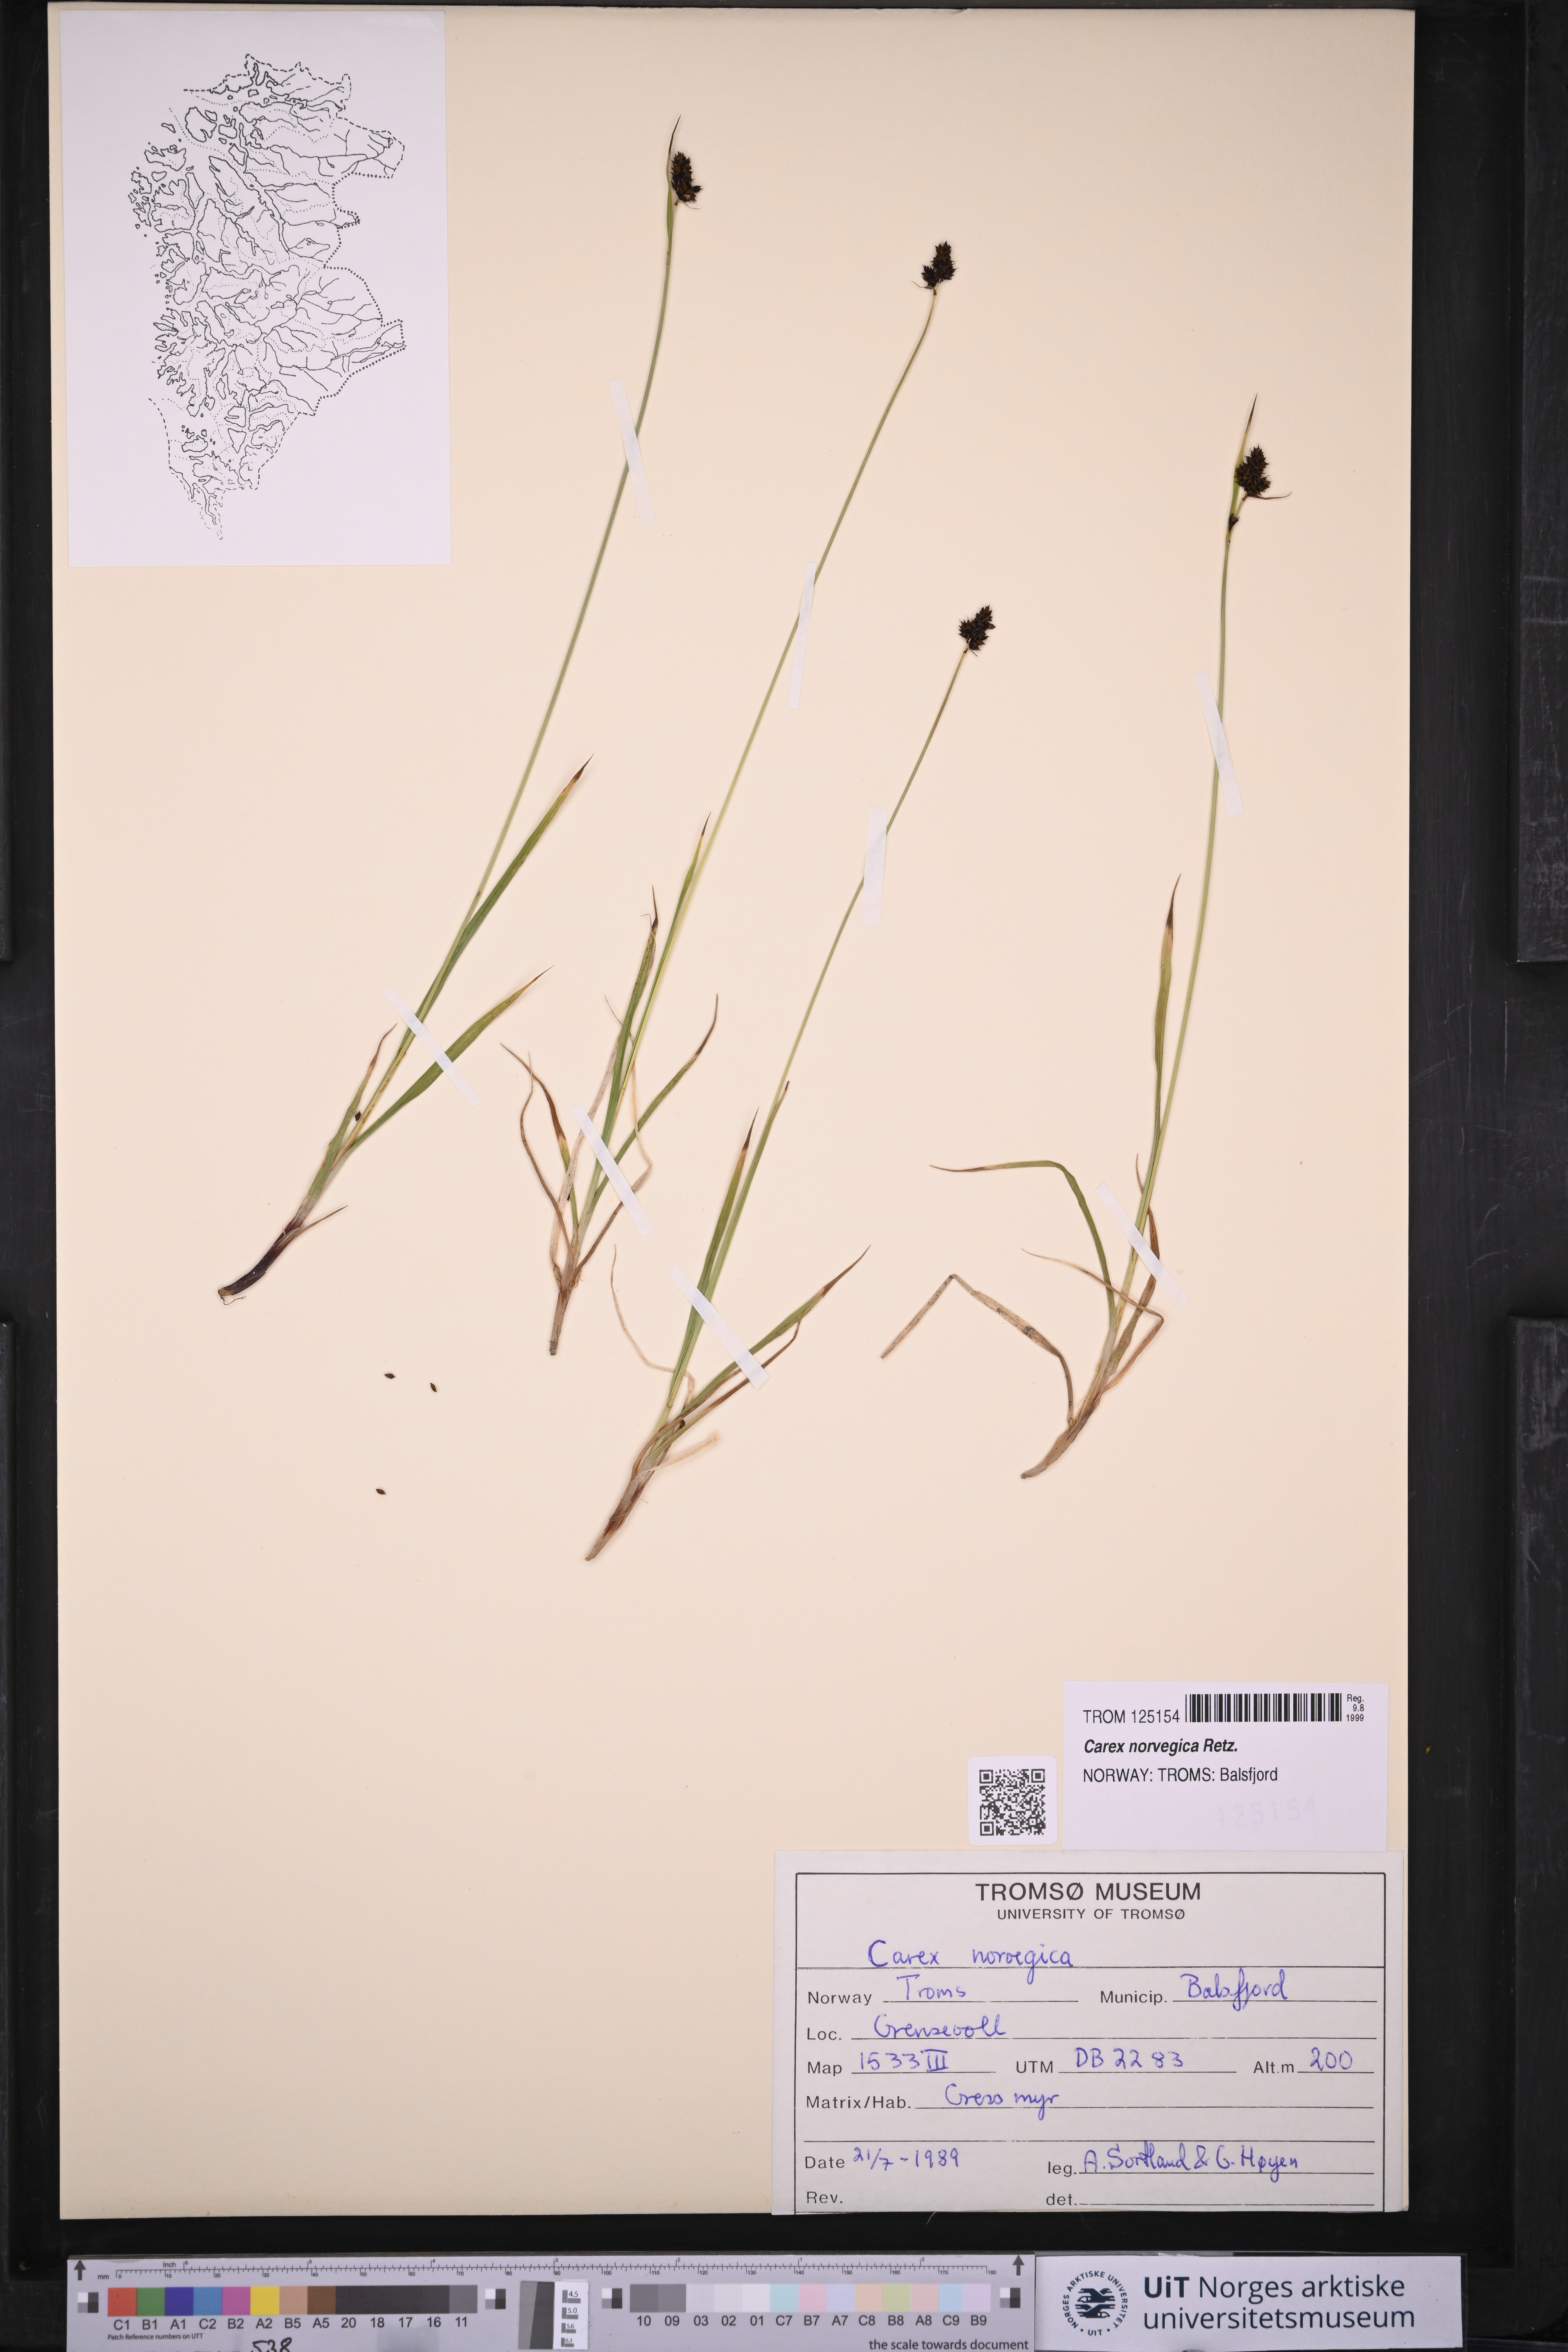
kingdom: Plantae
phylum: Tracheophyta
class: Liliopsida
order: Poales
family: Cyperaceae
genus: Carex
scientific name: Carex norvegica
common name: Close-headed alpine-sedge
